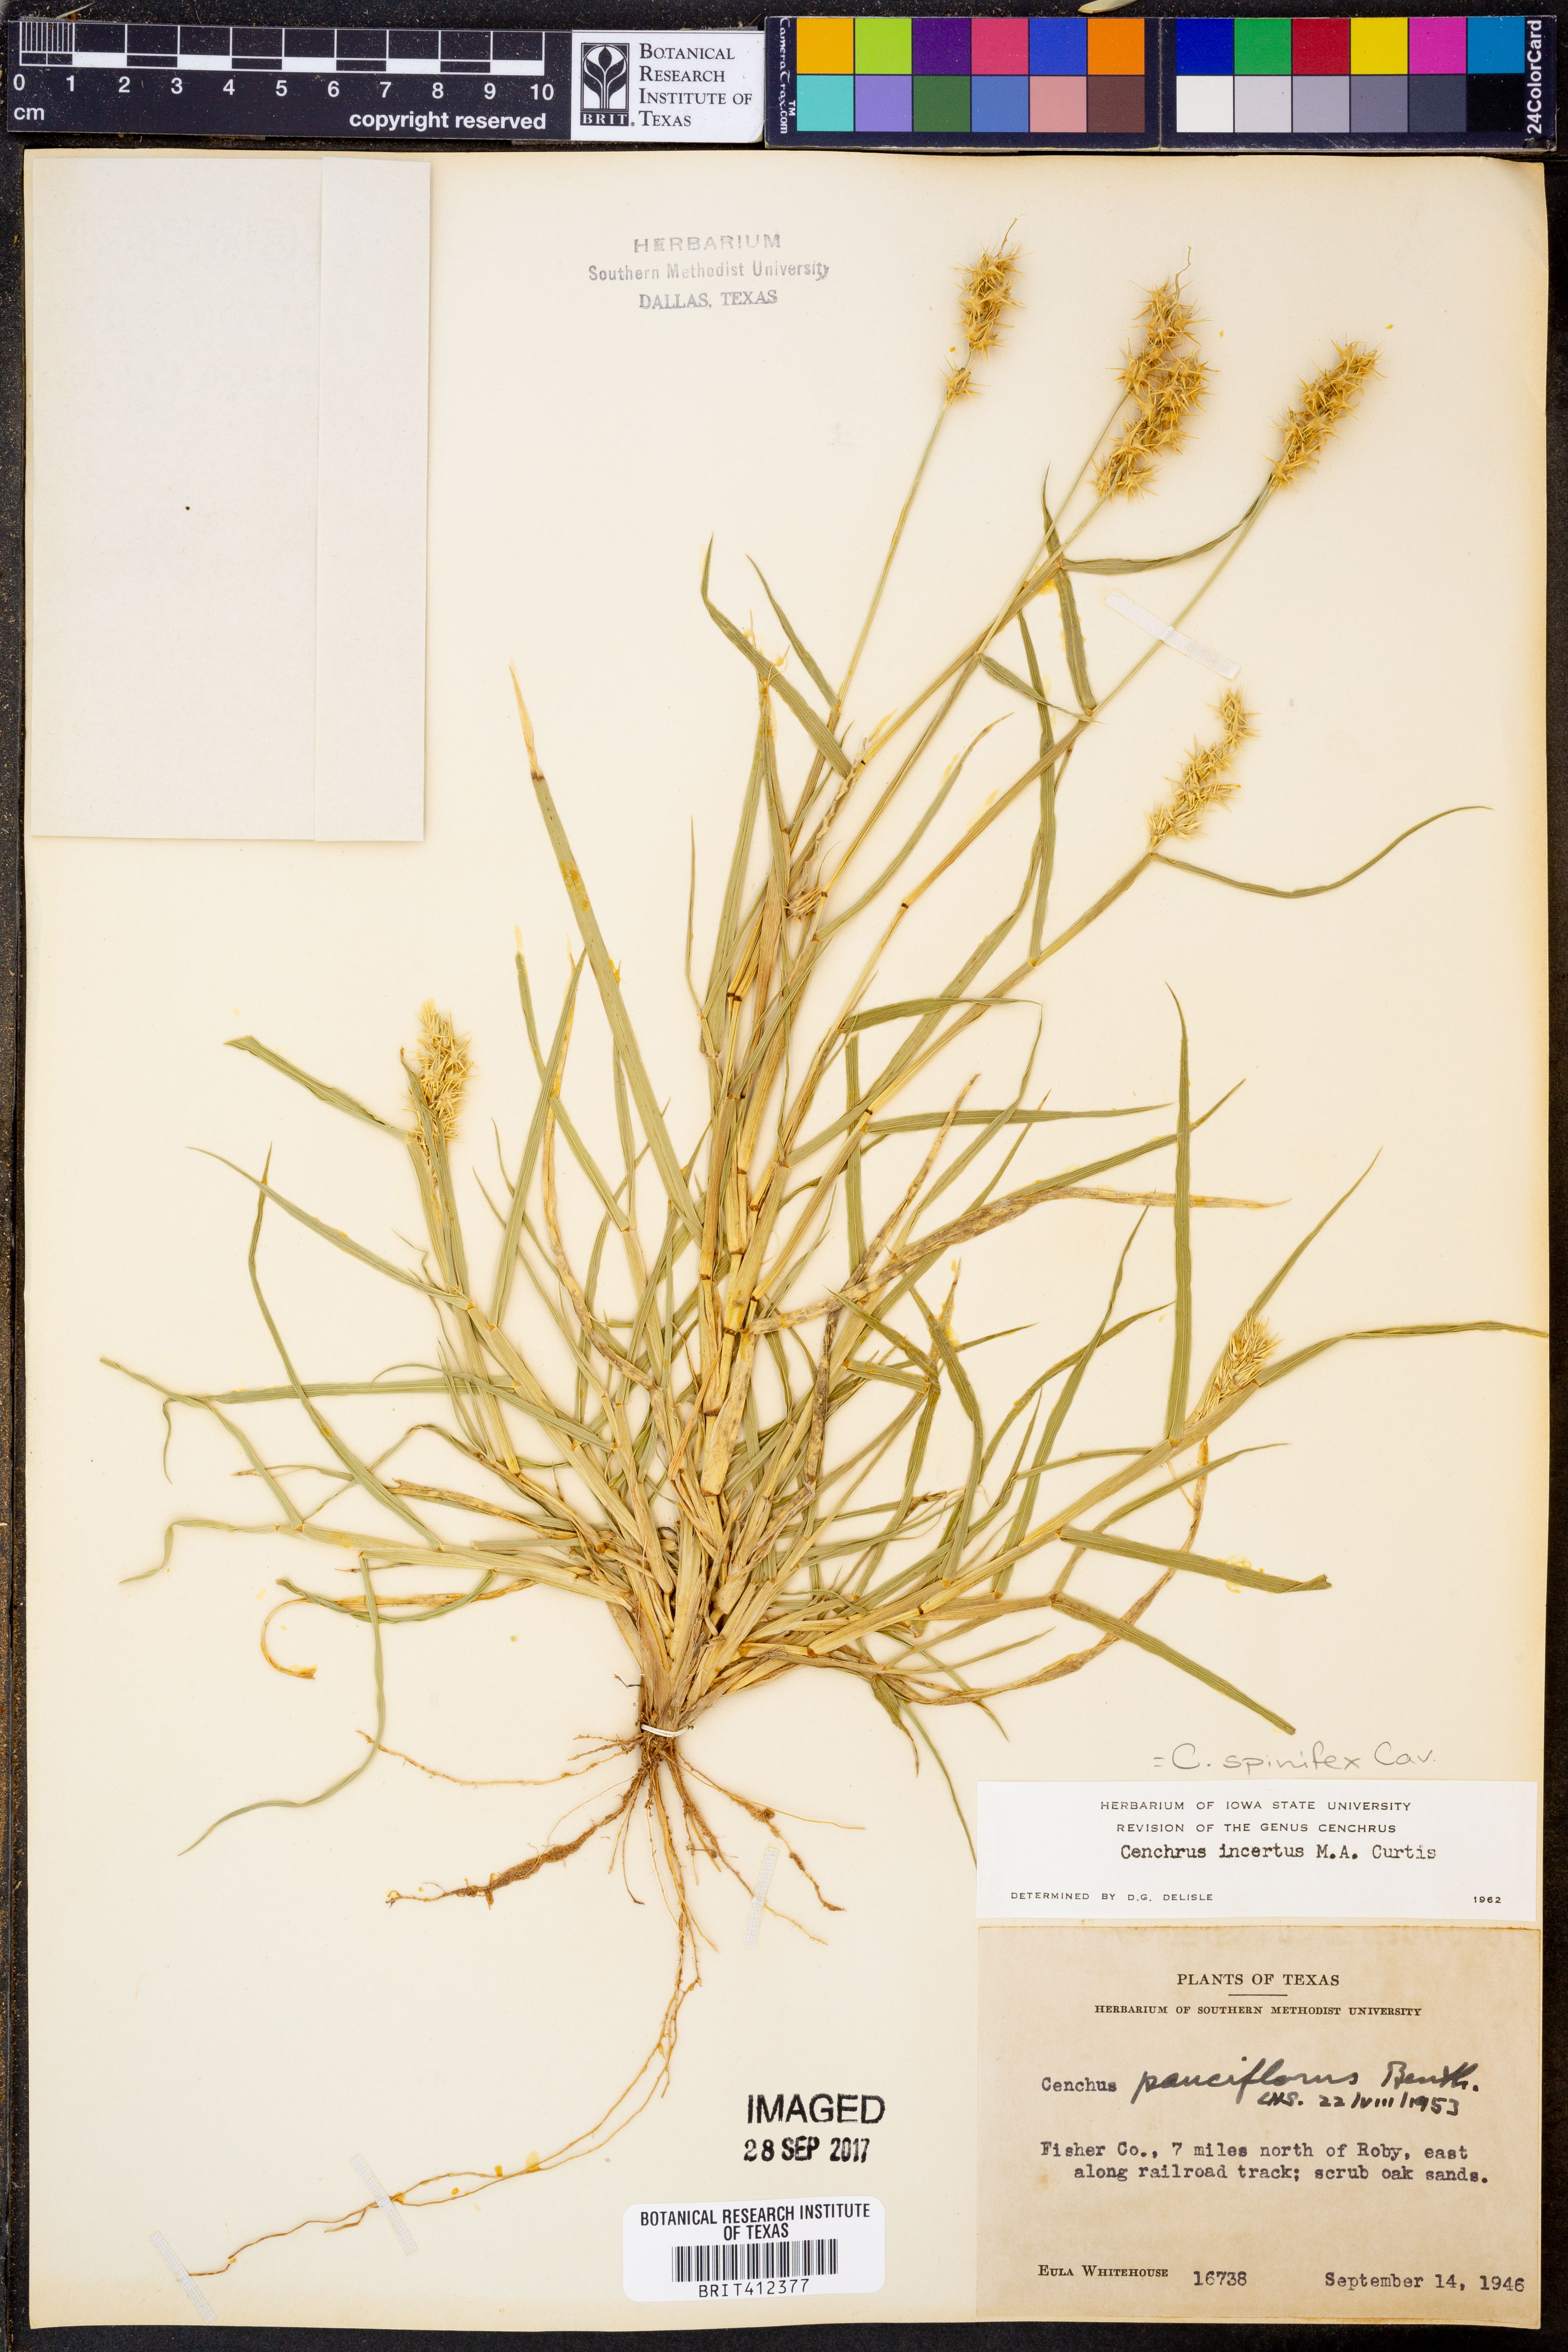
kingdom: Plantae
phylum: Tracheophyta
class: Liliopsida
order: Poales
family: Poaceae
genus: Cenchrus
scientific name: Cenchrus spinifex
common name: Coast sandbur
